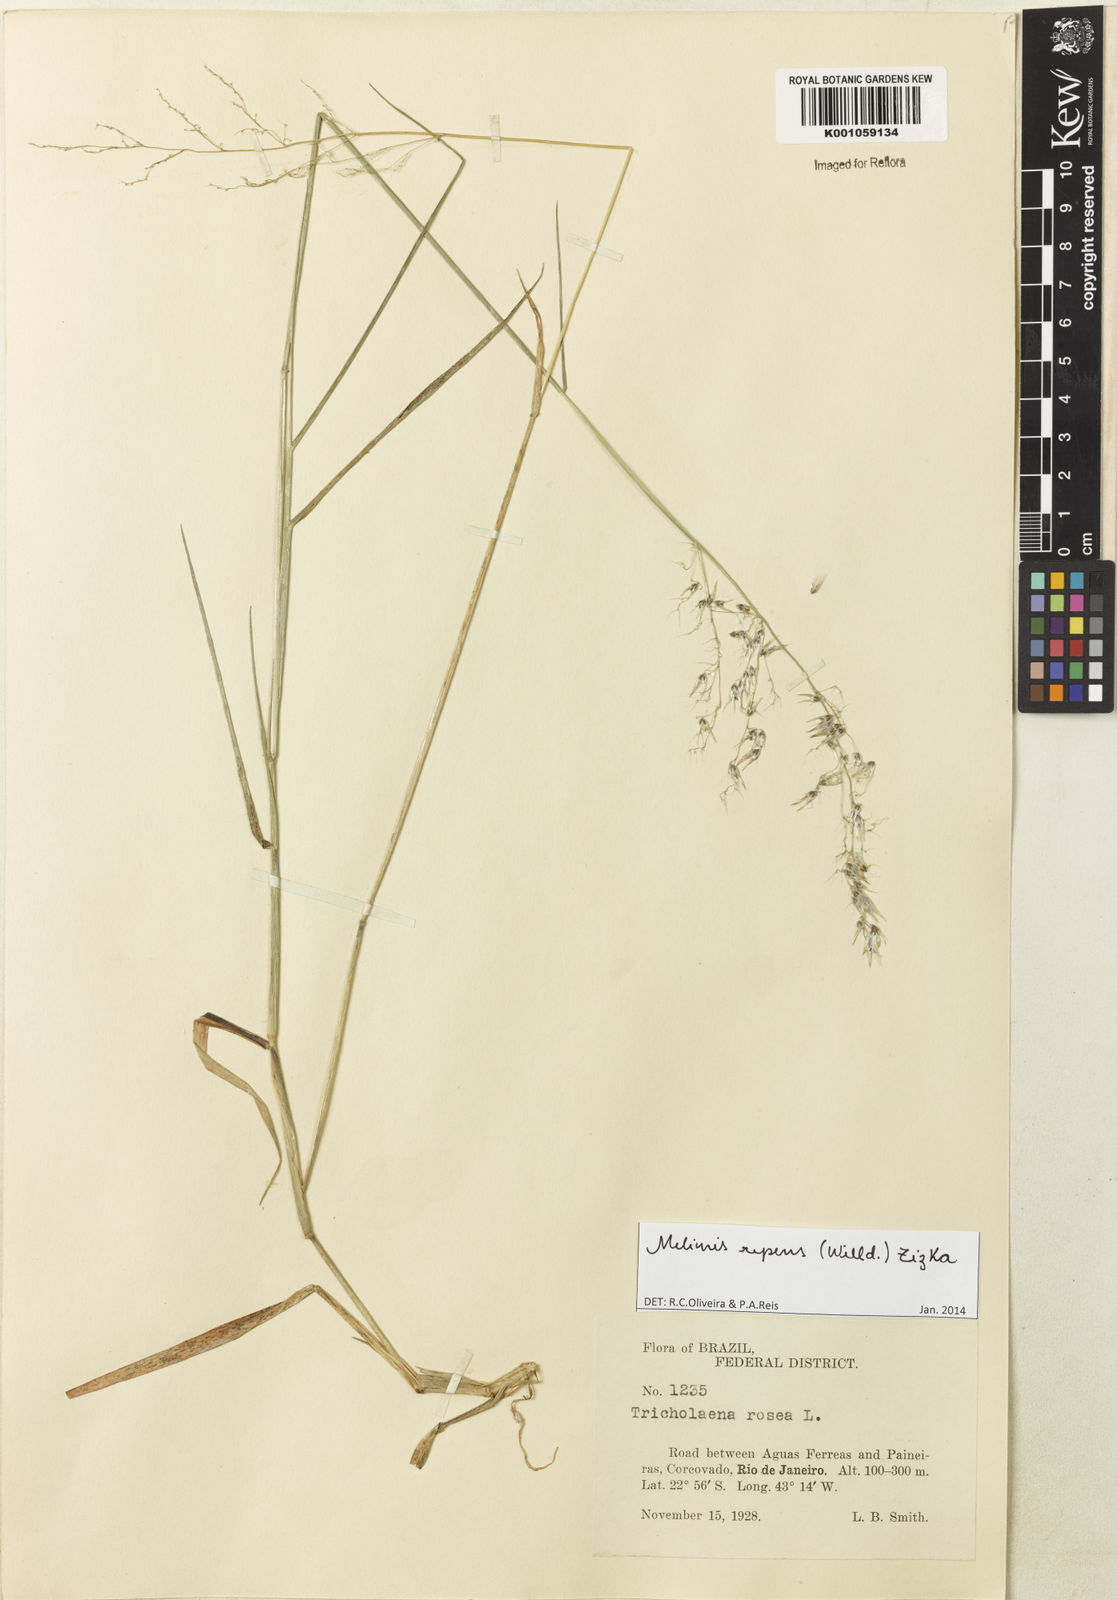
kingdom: Plantae
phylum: Tracheophyta
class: Liliopsida
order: Poales
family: Poaceae
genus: Melinis
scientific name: Melinis repens
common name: Rose natal grass
